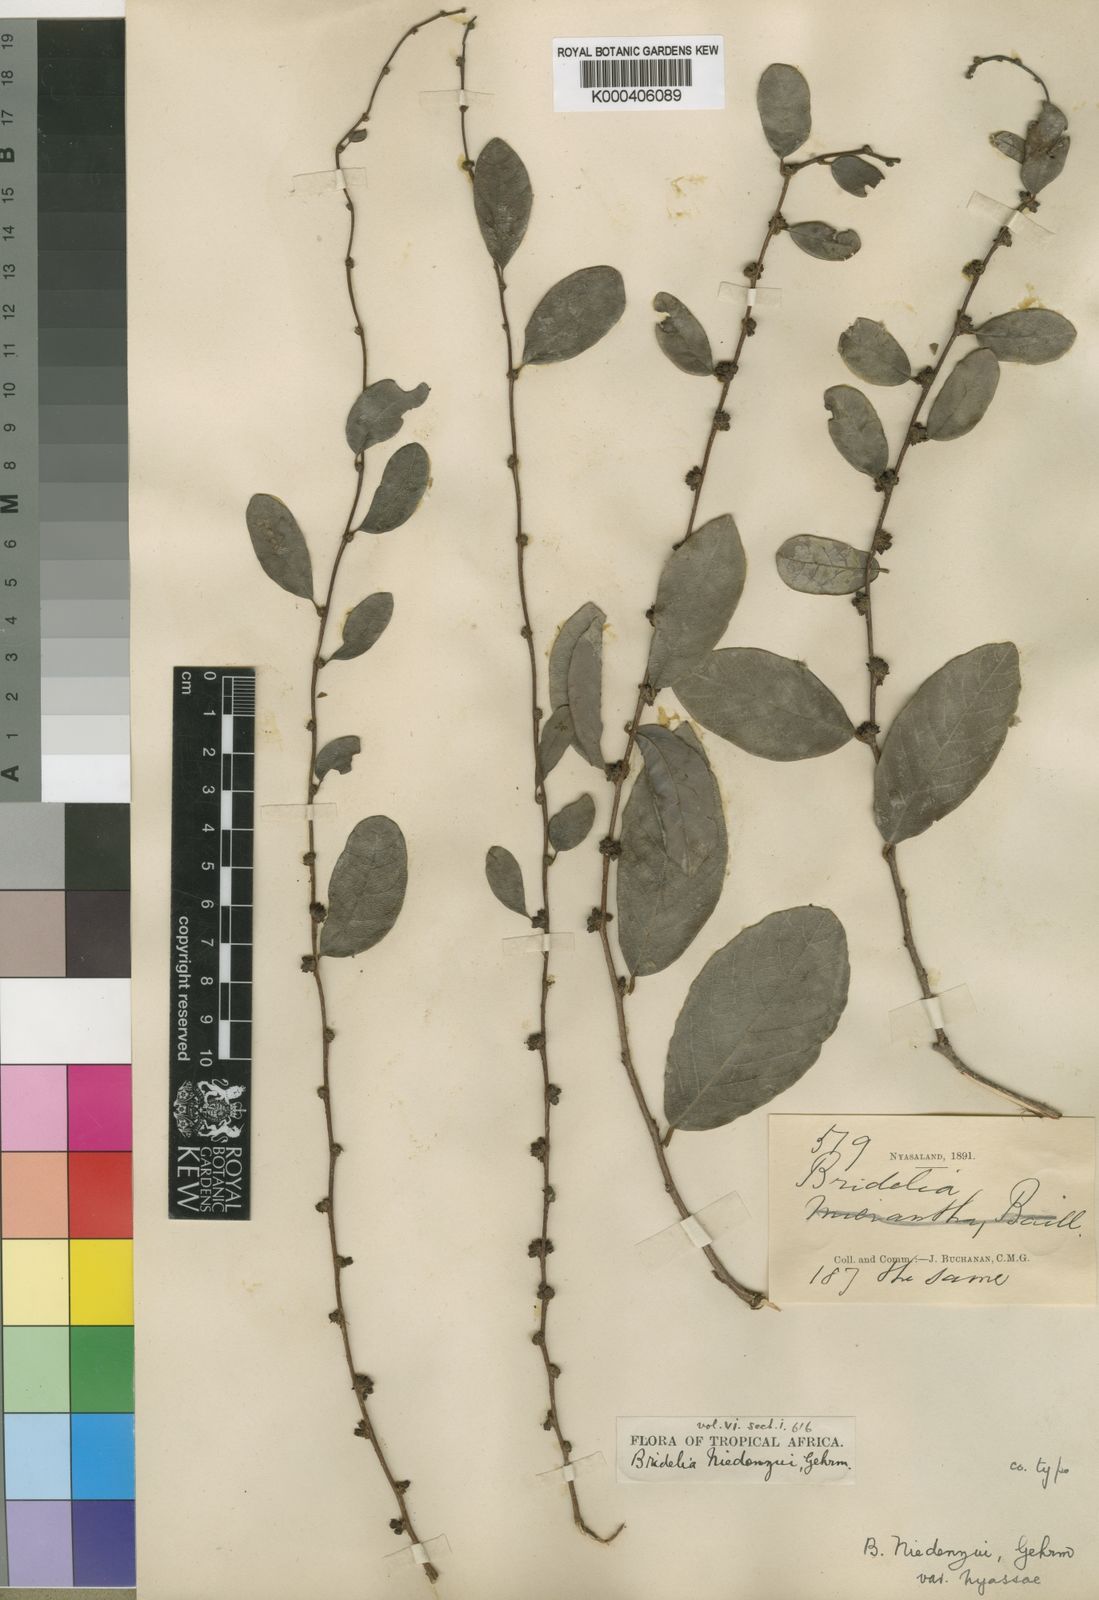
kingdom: Plantae
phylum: Tracheophyta
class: Magnoliopsida
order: Malpighiales
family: Phyllanthaceae
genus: Bridelia
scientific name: Bridelia cathartica
